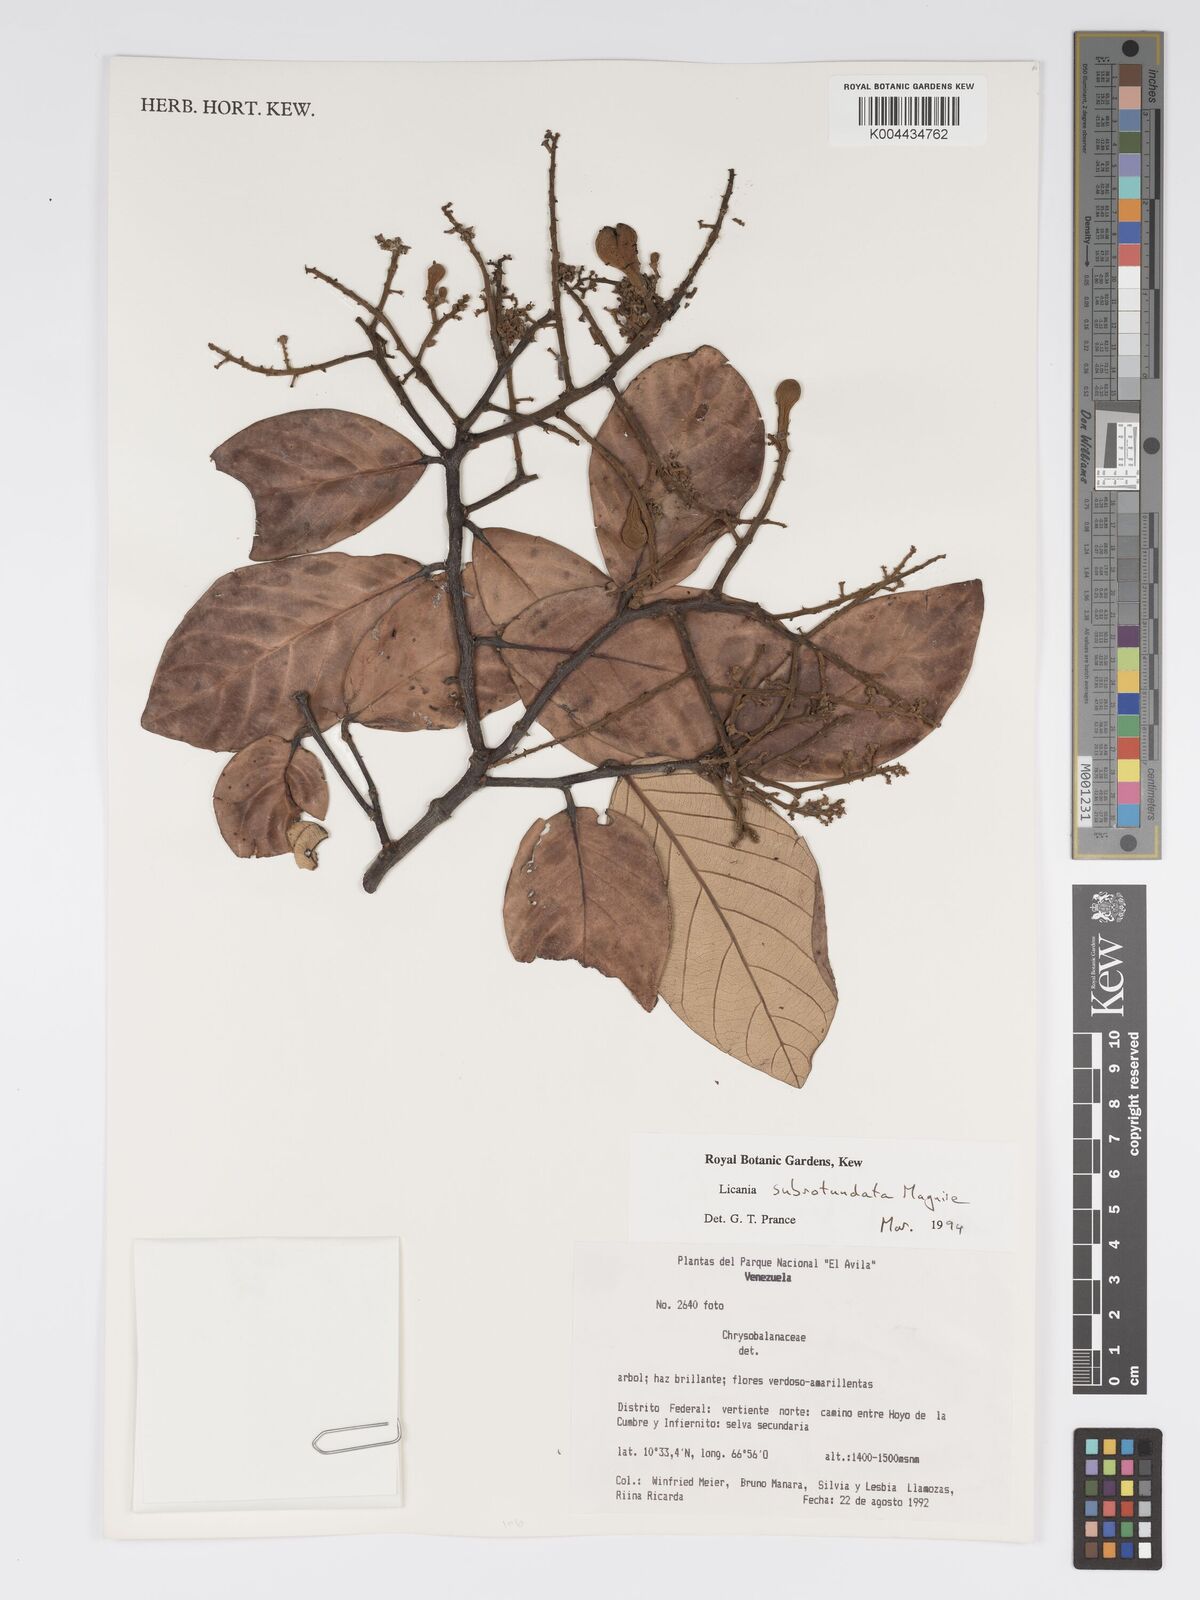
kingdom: Plantae
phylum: Tracheophyta
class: Magnoliopsida
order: Malpighiales
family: Chrysobalanaceae
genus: Licania
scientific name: Licania subrotundata
